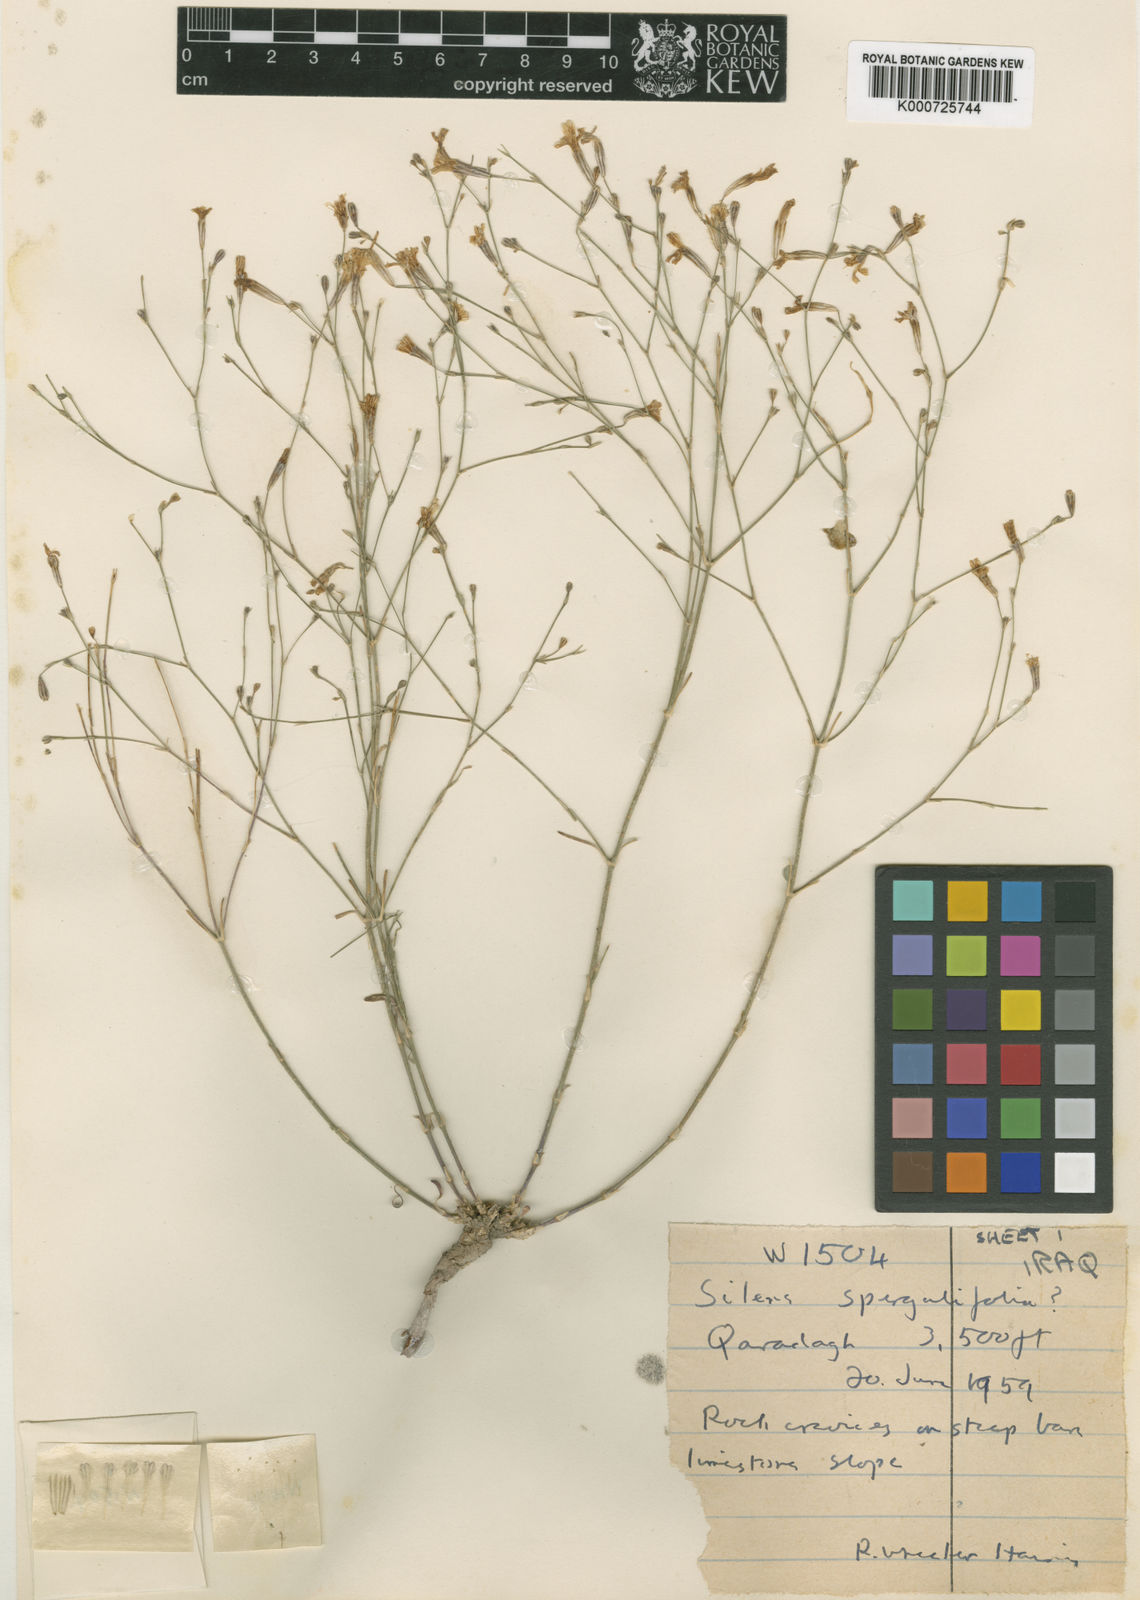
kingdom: Plantae
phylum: Tracheophyta
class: Magnoliopsida
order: Caryophyllales
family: Caryophyllaceae
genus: Gypsophila
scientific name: Gypsophila
